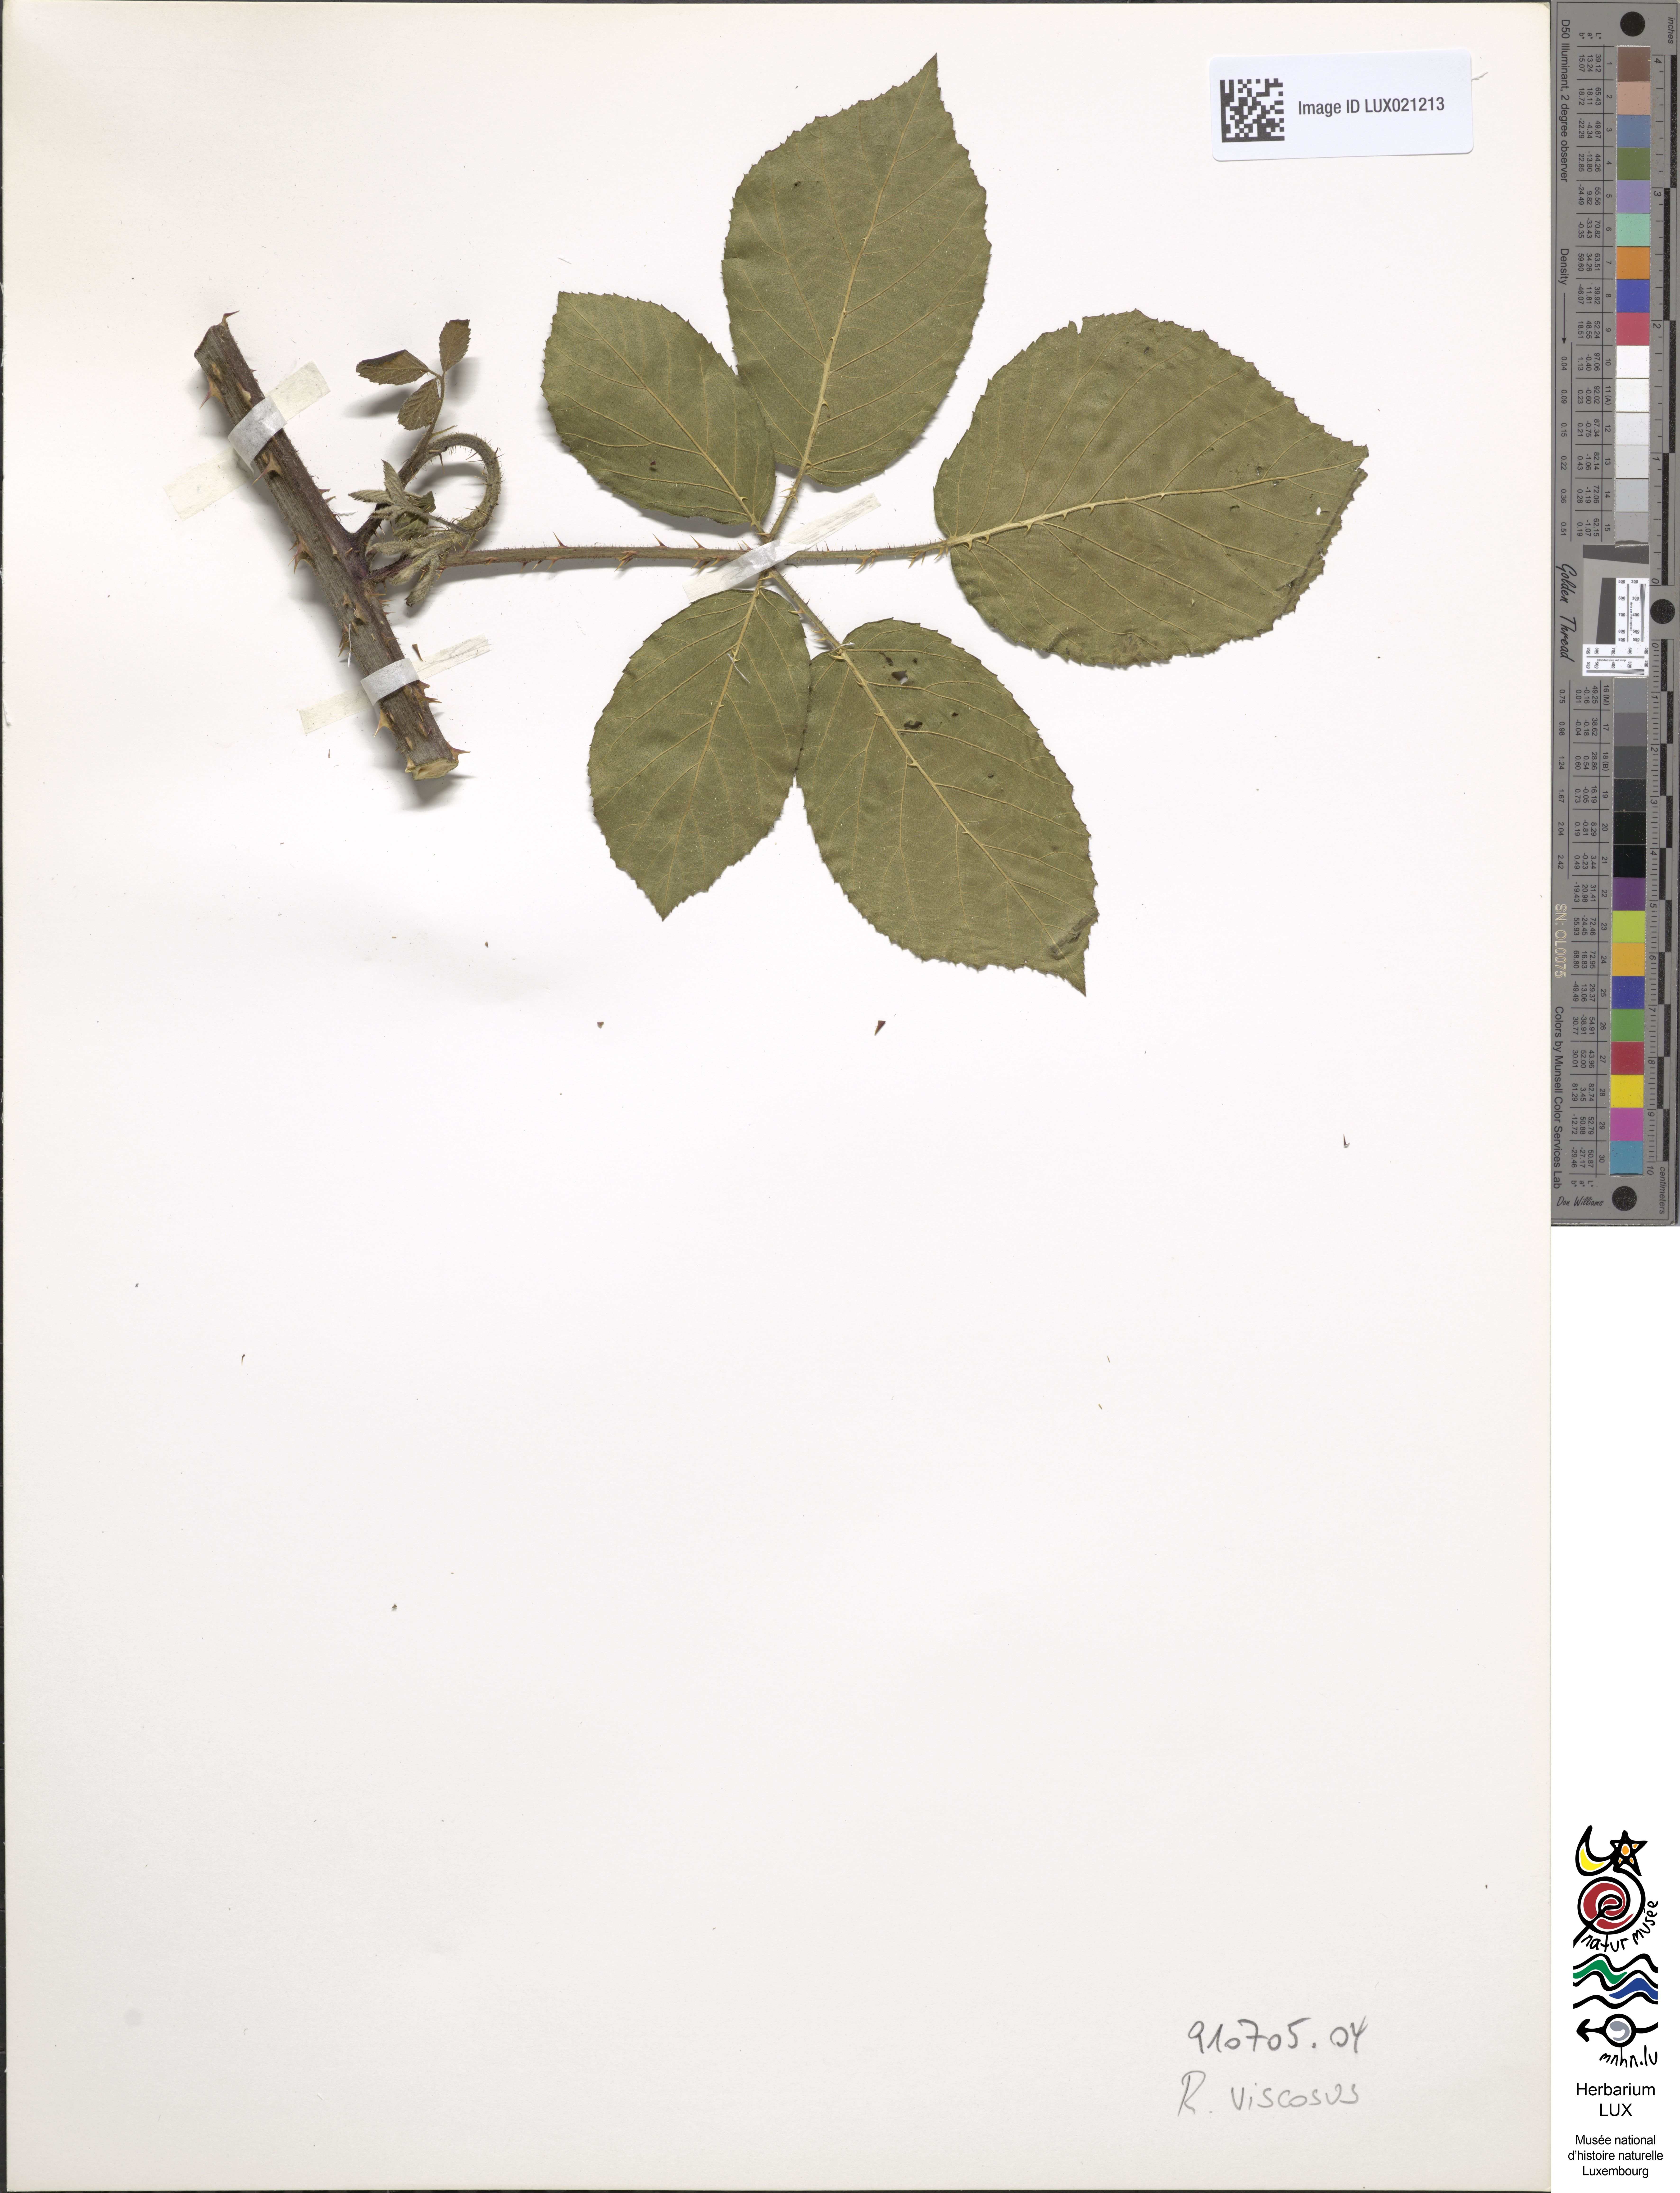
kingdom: Plantae
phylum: Tracheophyta
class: Magnoliopsida
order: Rosales
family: Rosaceae
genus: Rubus
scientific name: Rubus viscosus
